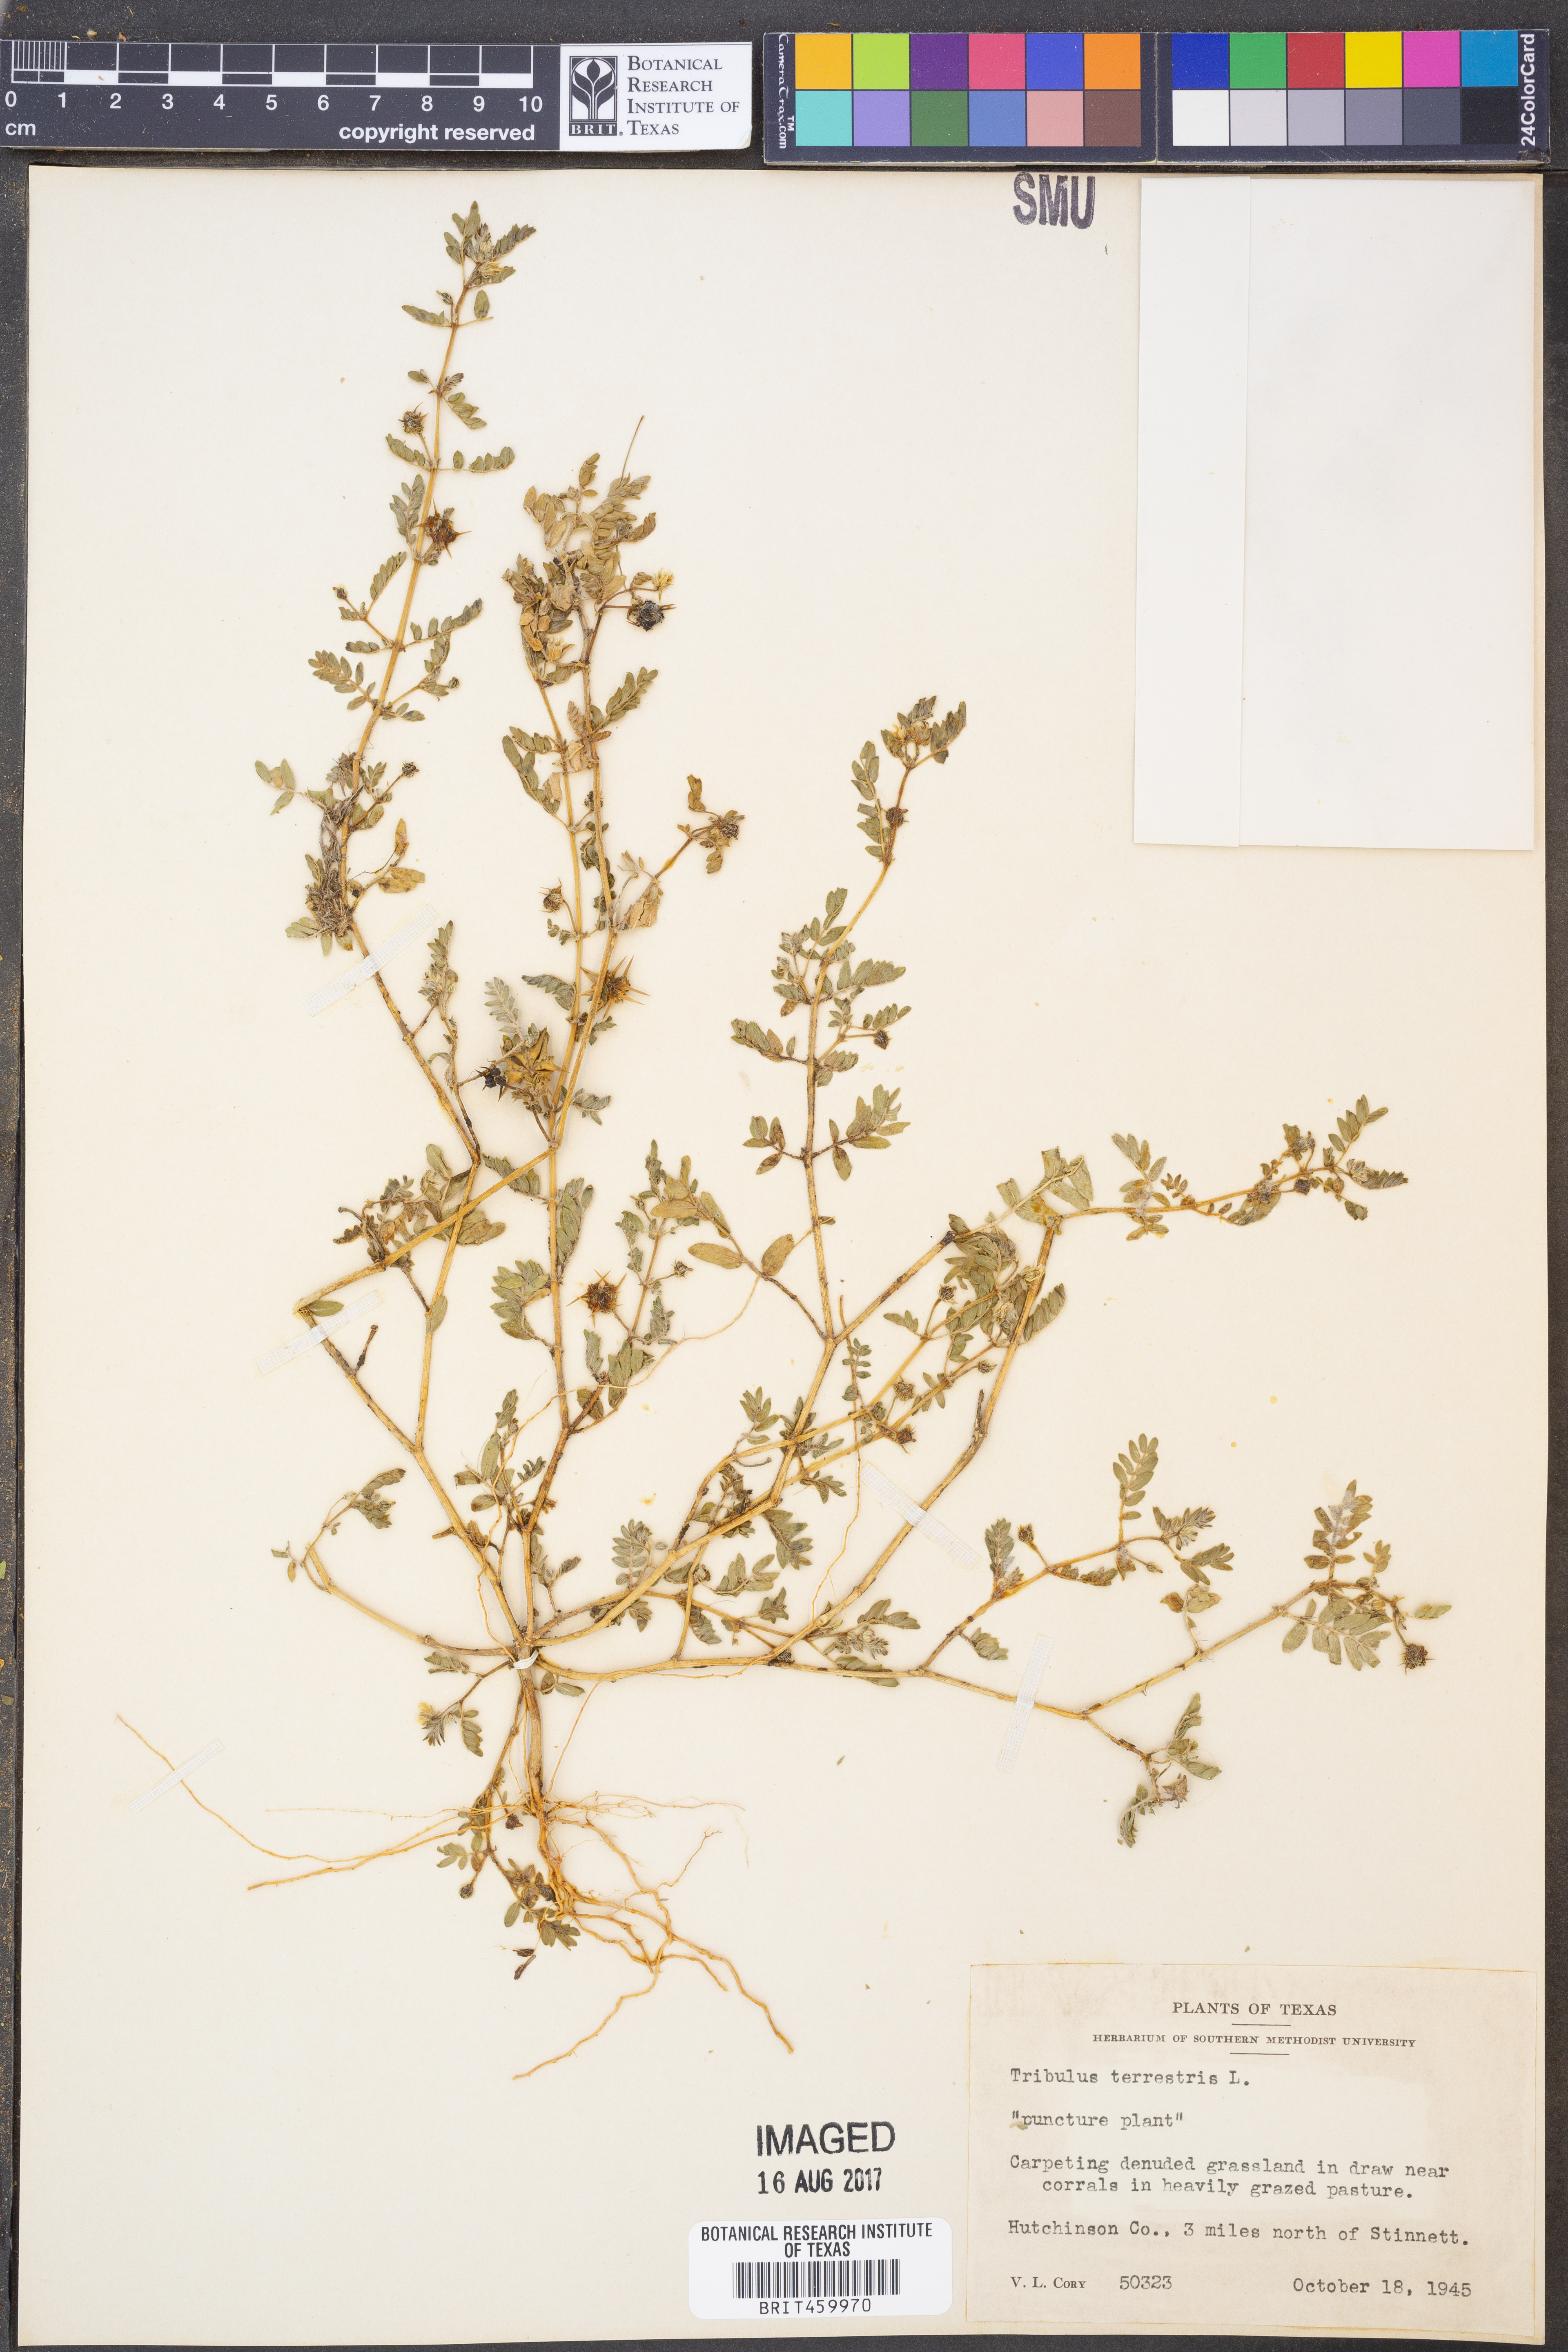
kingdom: Plantae
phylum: Tracheophyta
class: Magnoliopsida
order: Zygophyllales
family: Zygophyllaceae
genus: Tribulus
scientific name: Tribulus terrestris
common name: Puncturevine
